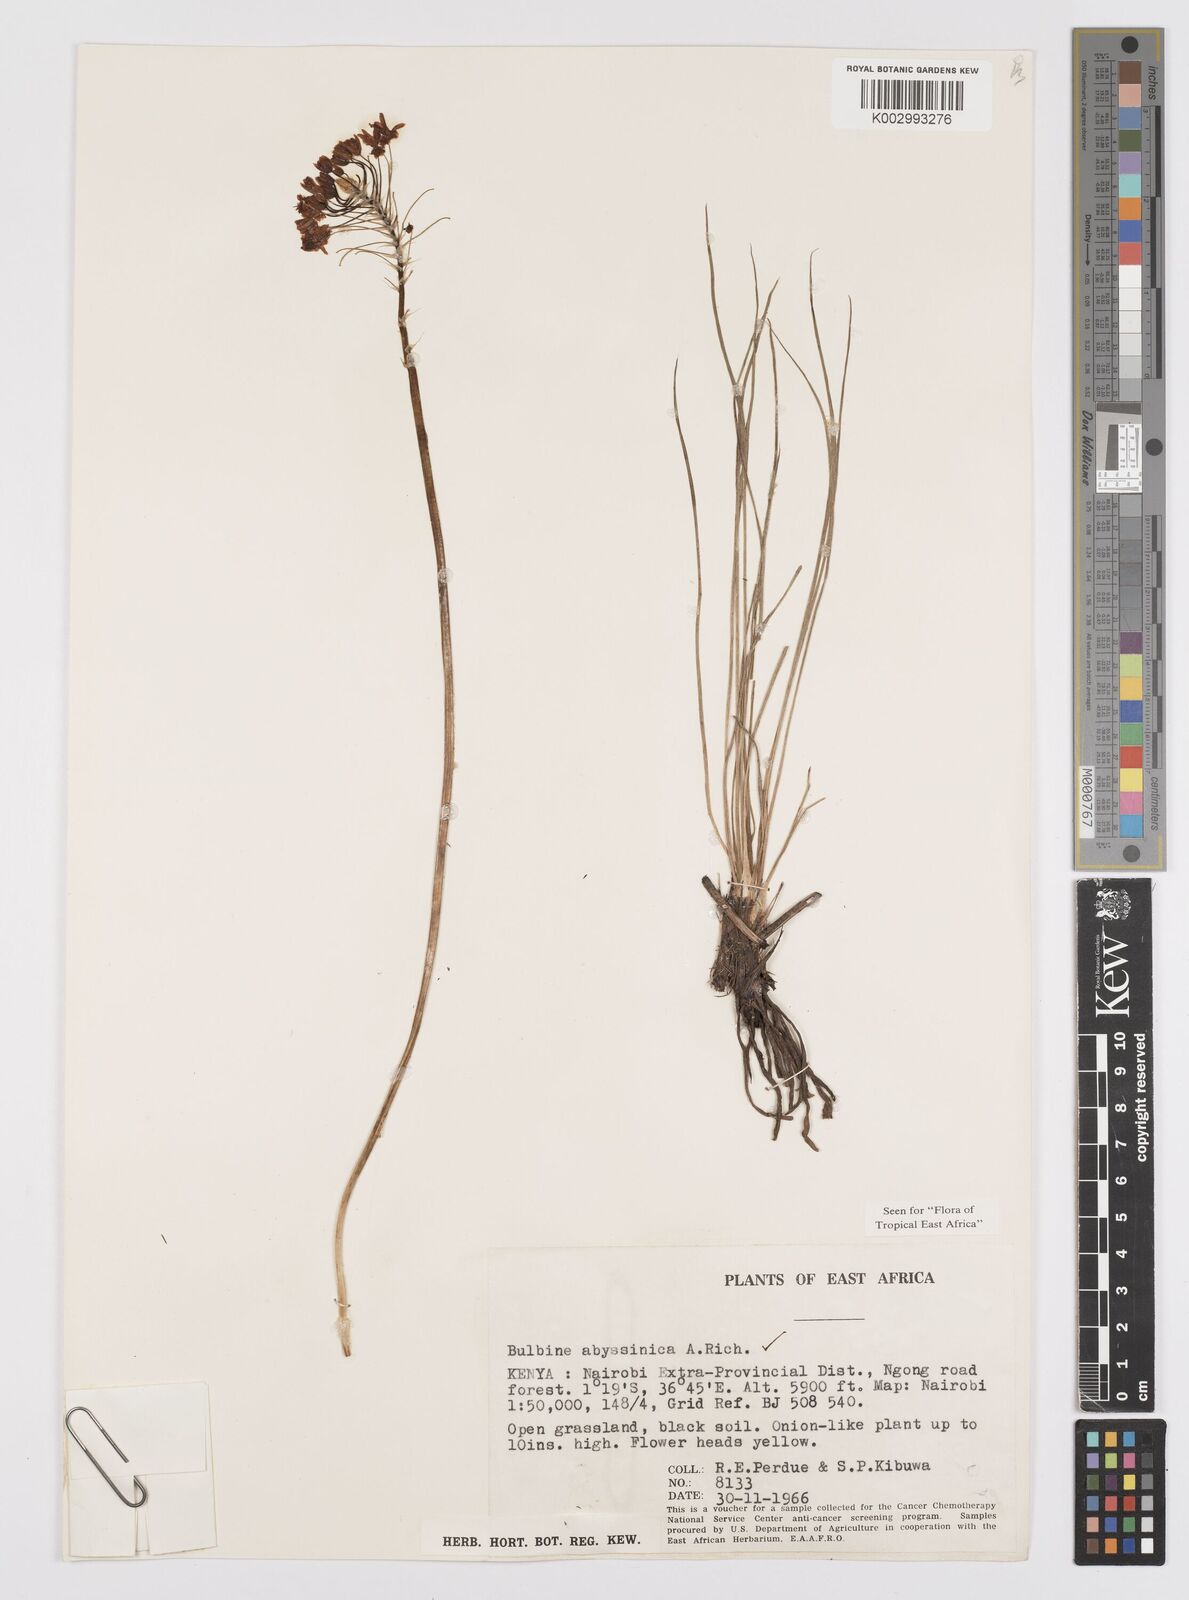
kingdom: Plantae
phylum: Tracheophyta
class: Liliopsida
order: Asparagales
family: Asphodelaceae
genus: Bulbine
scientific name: Bulbine abyssinica
